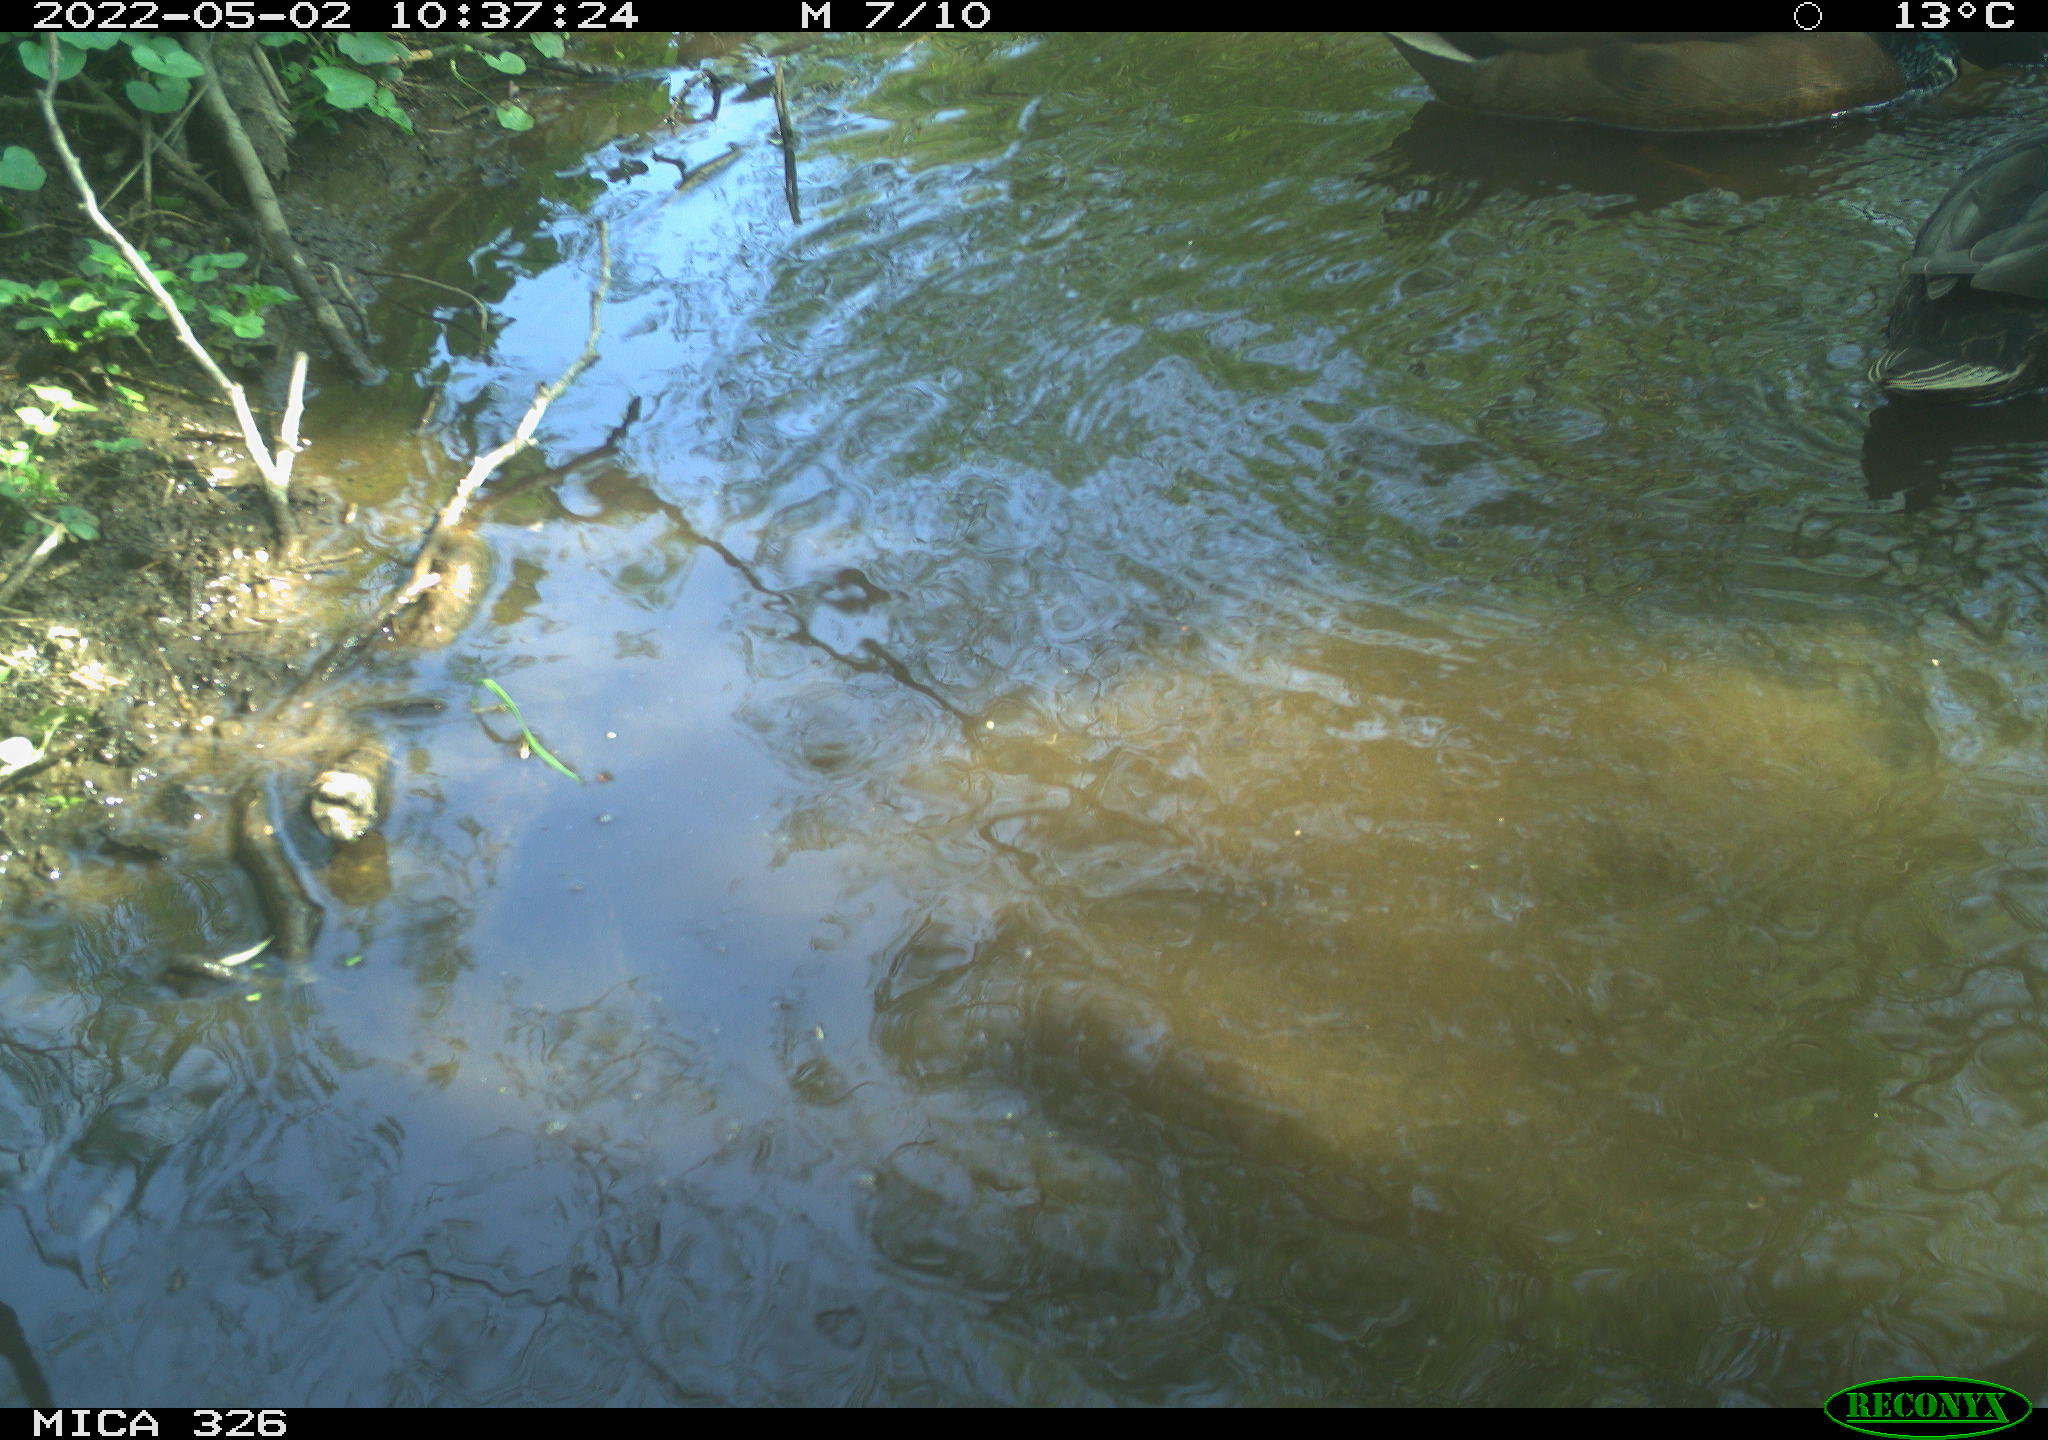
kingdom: Animalia
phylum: Chordata
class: Aves
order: Anseriformes
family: Anatidae
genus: Anas
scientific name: Anas
